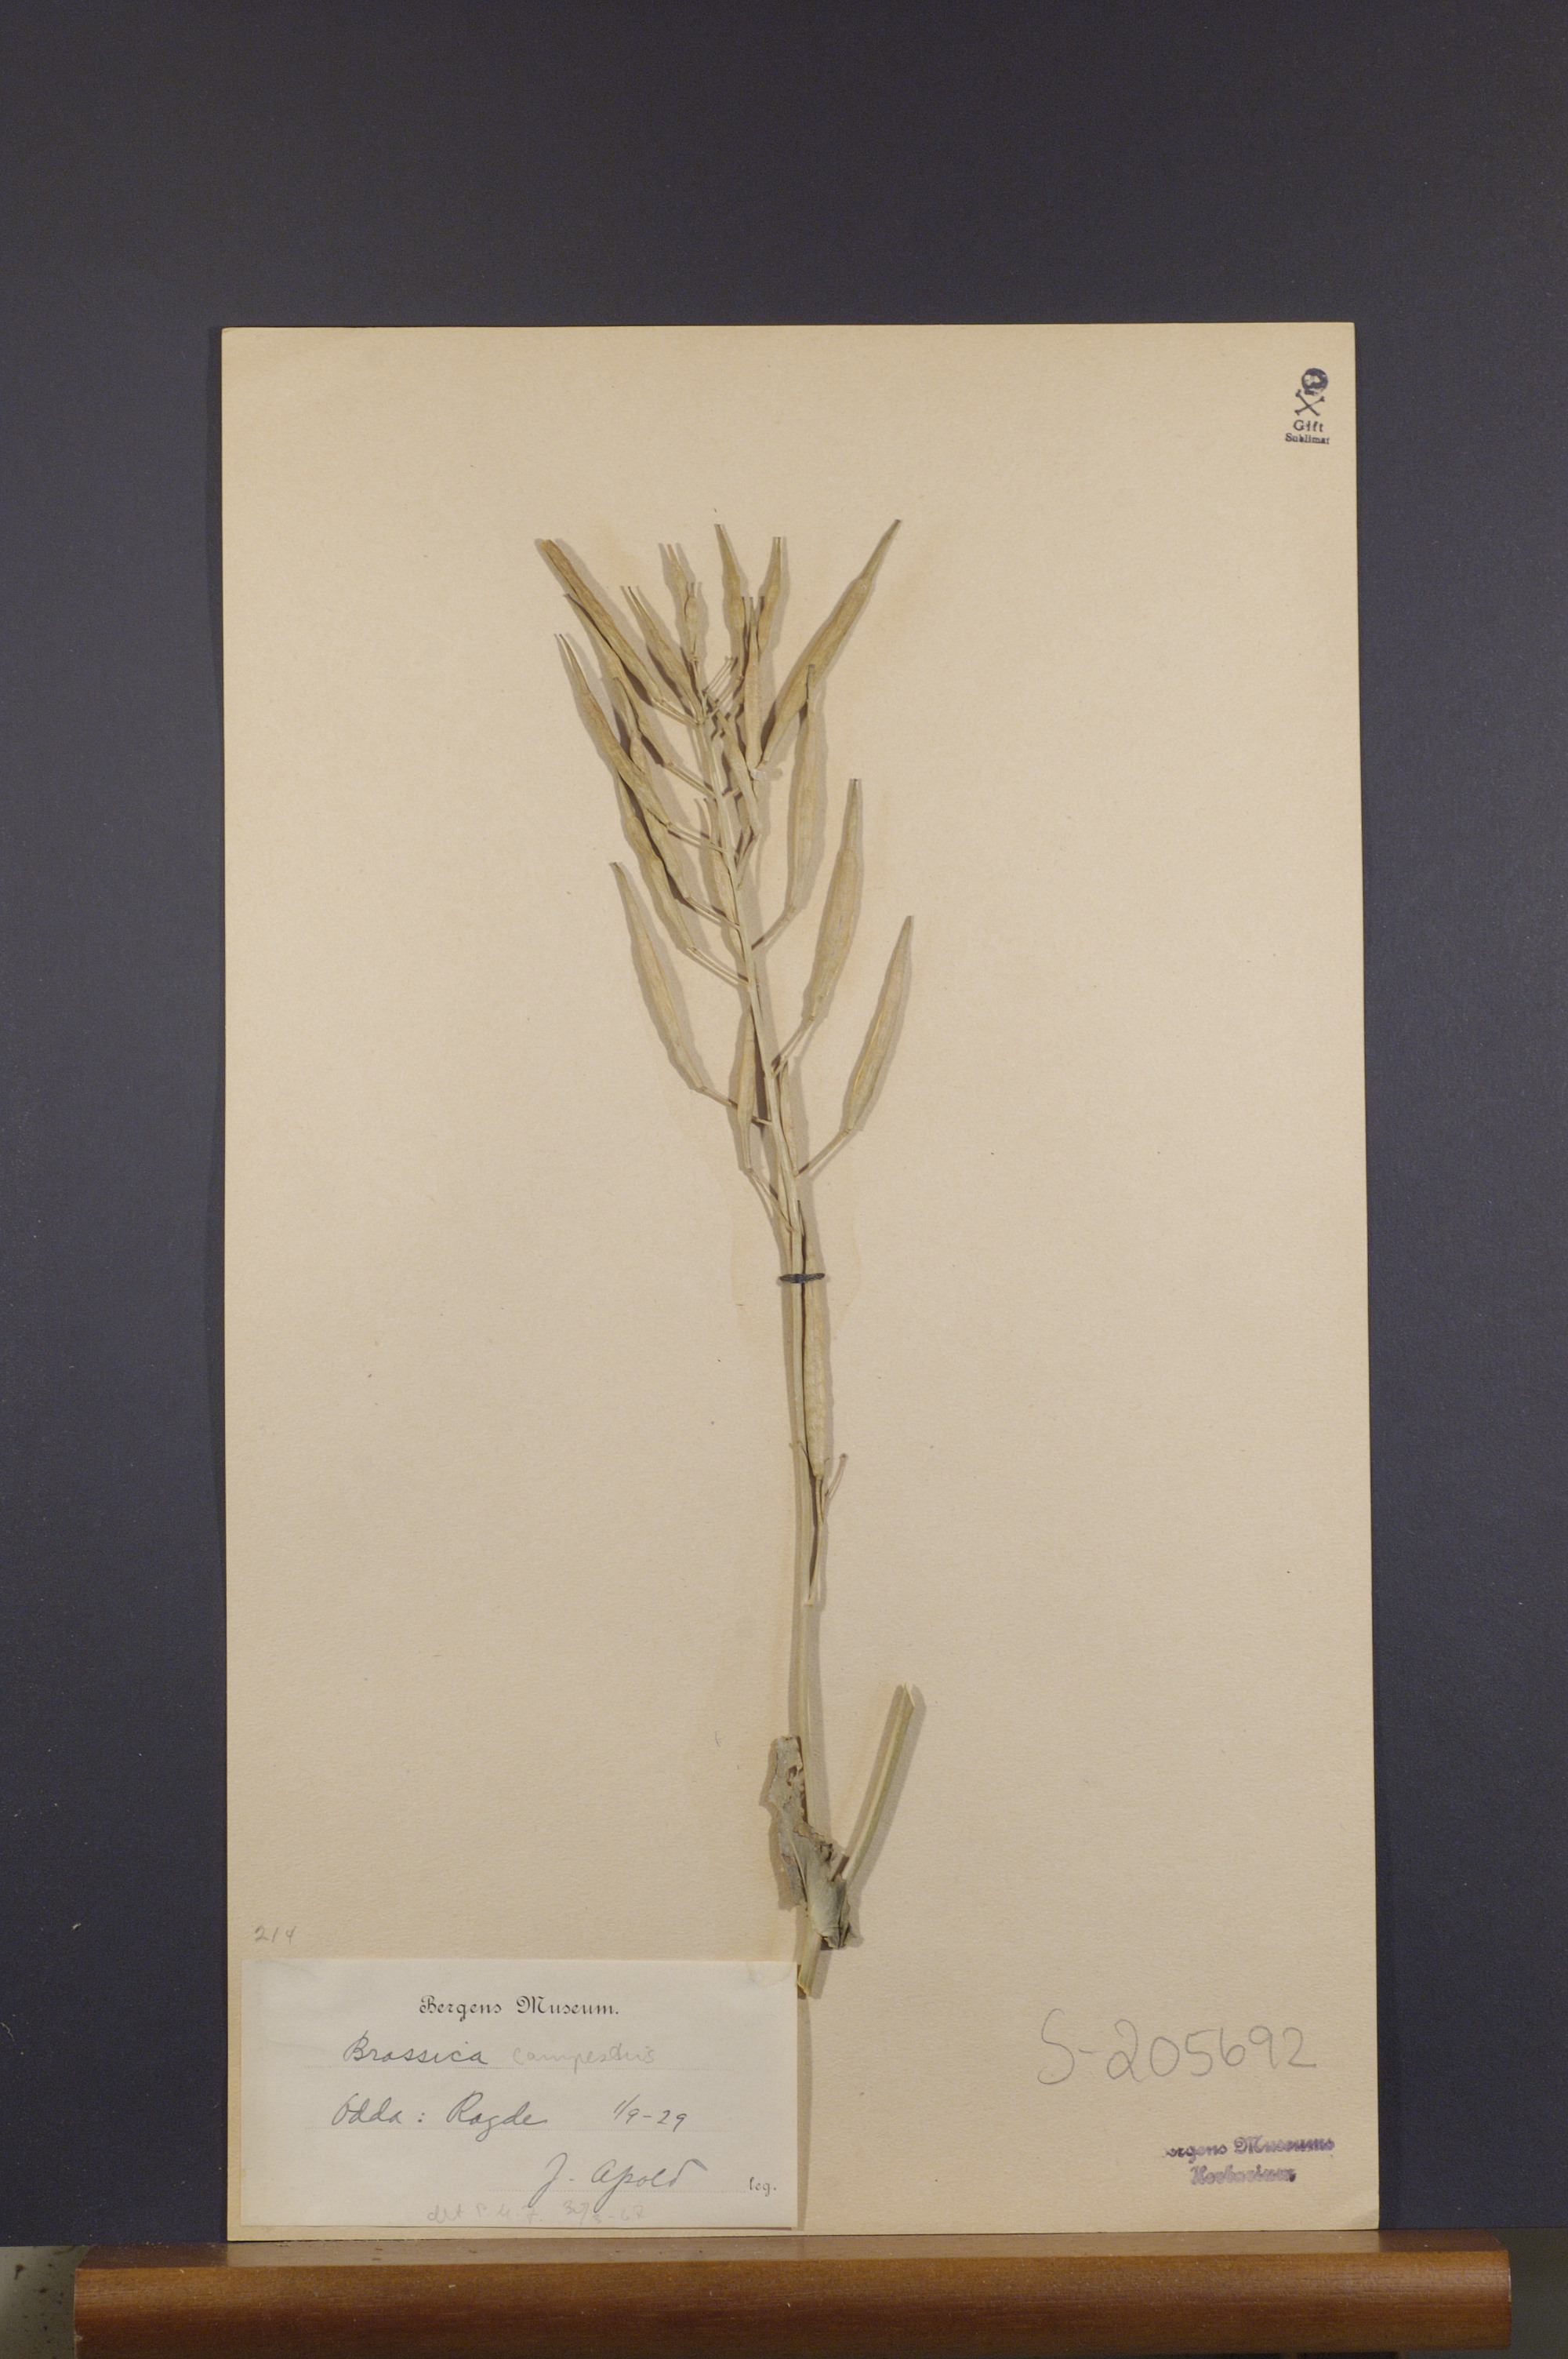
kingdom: Plantae
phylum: Tracheophyta
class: Magnoliopsida
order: Brassicales
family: Brassicaceae
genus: Brassica
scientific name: Brassica rapa
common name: Field mustard
